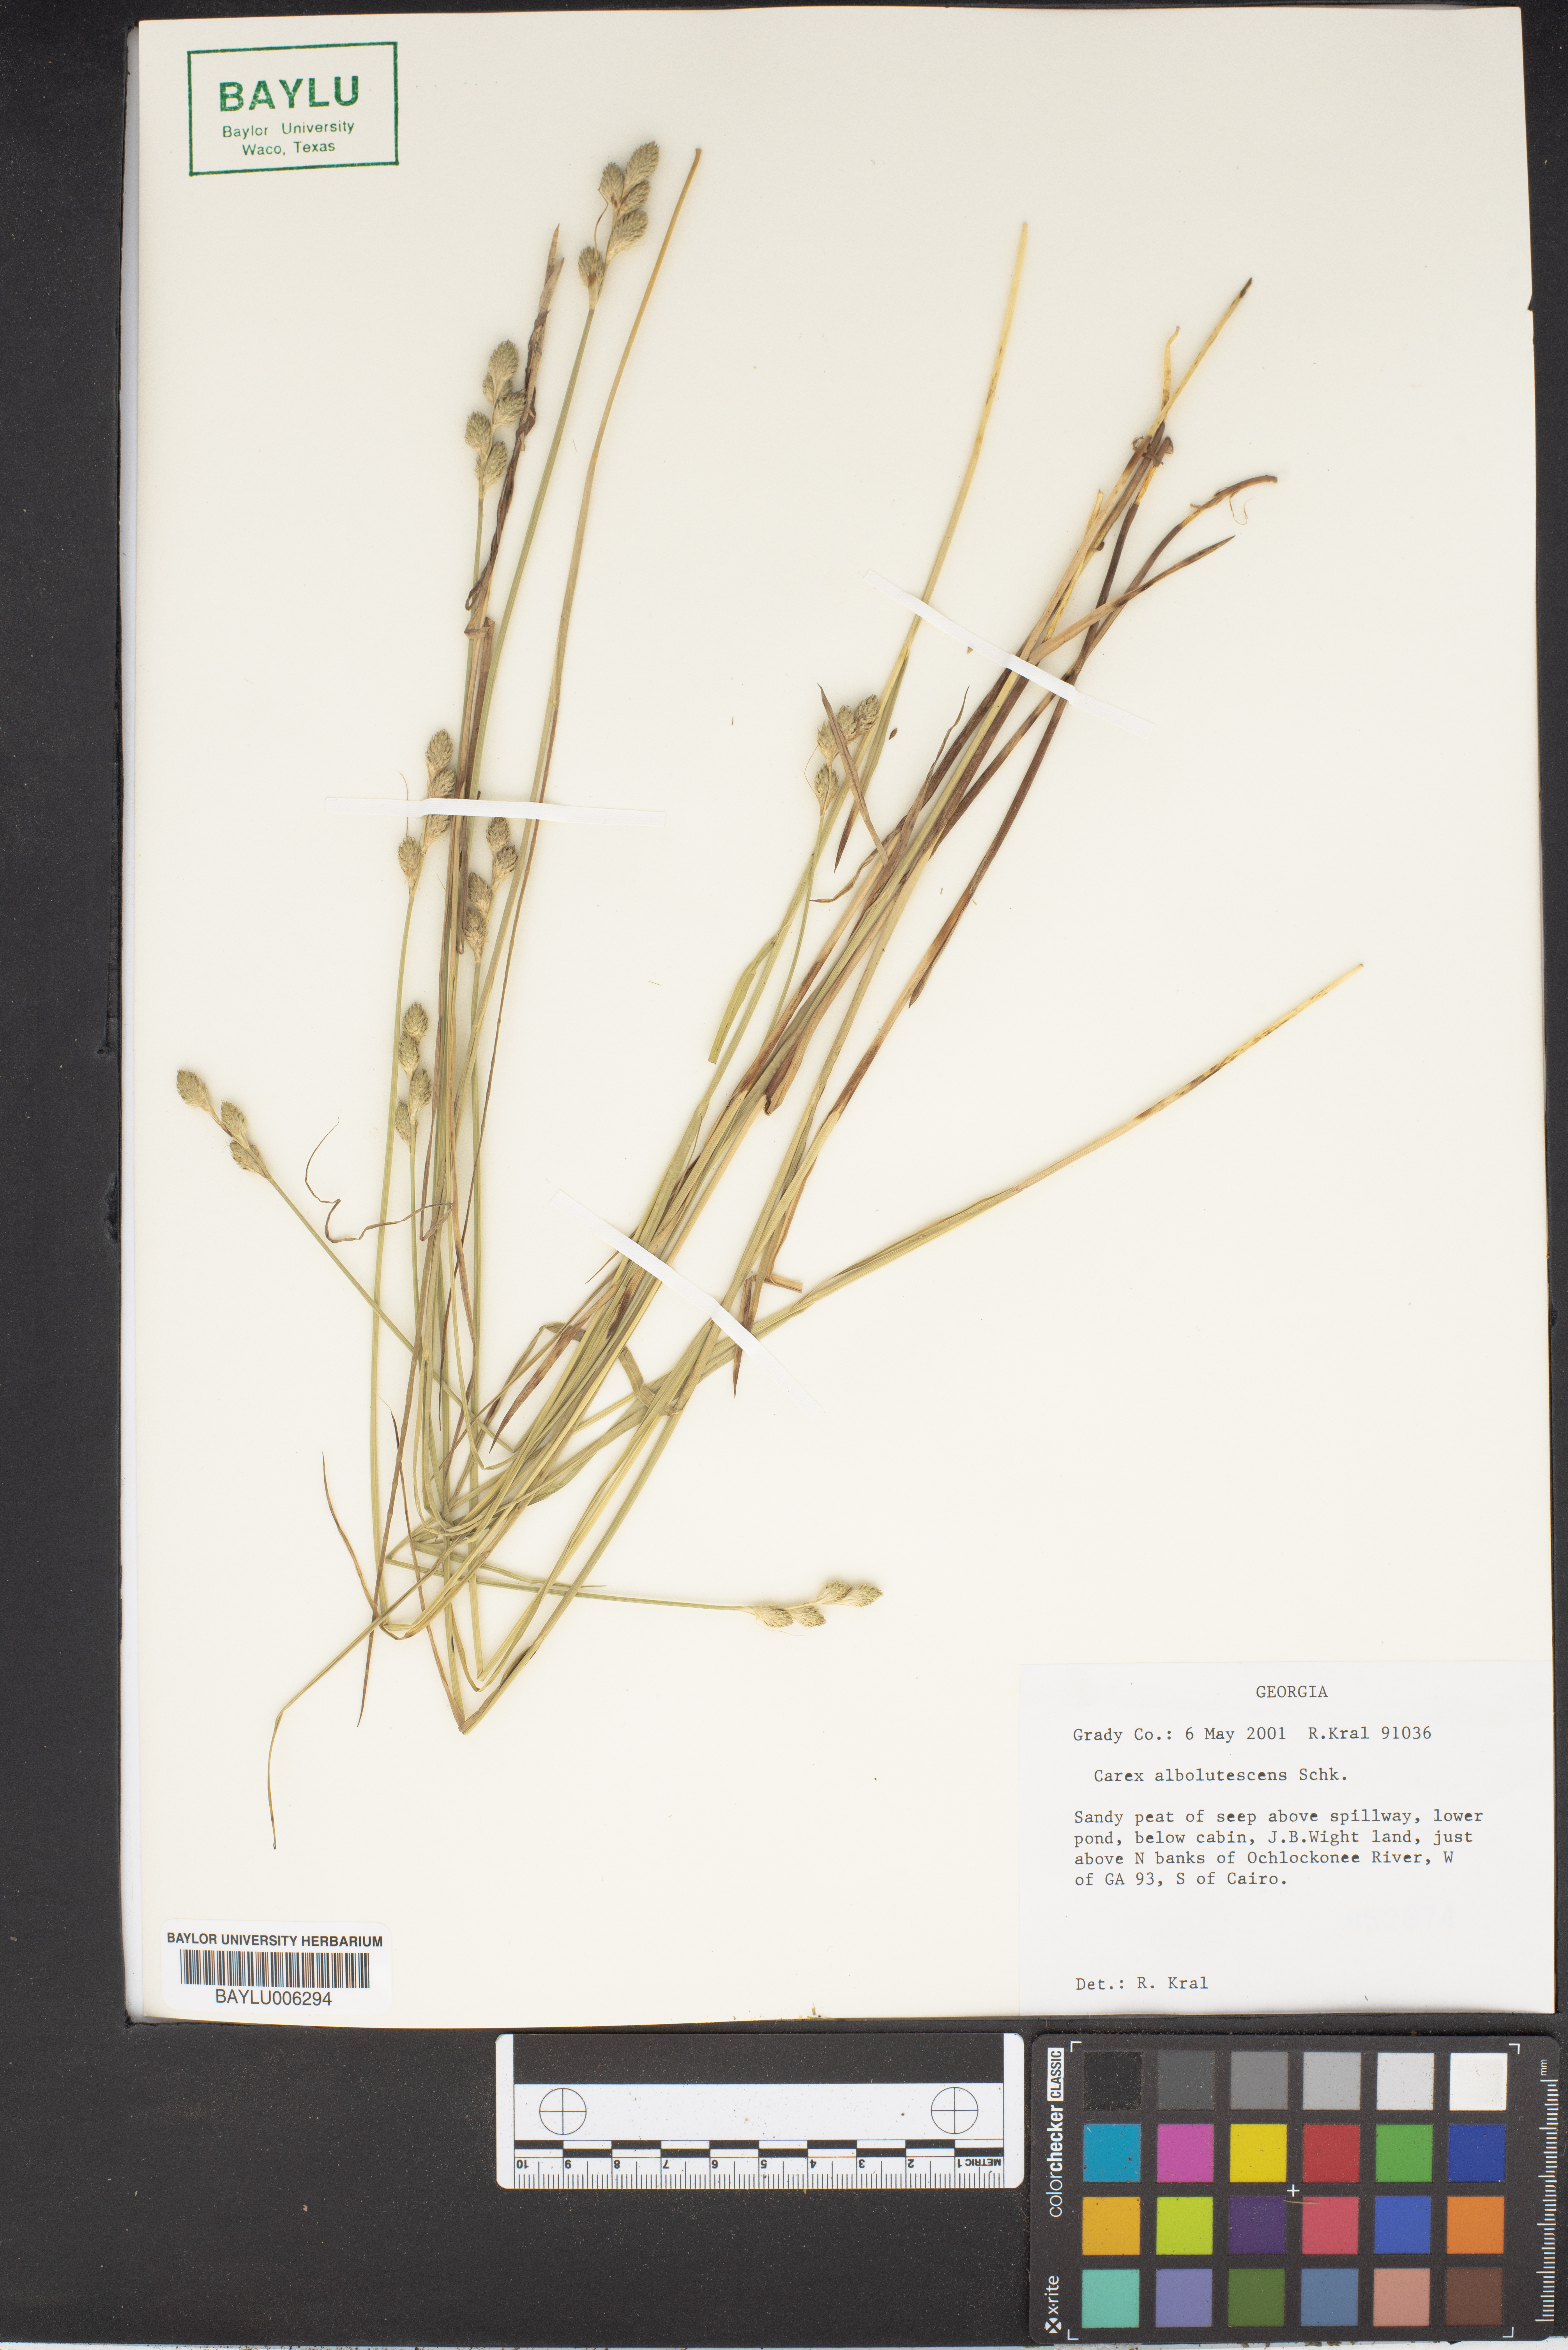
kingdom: Plantae
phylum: Tracheophyta
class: Liliopsida
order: Poales
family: Cyperaceae
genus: Carex
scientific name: Carex albolutescens
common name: Freenish white sedge
